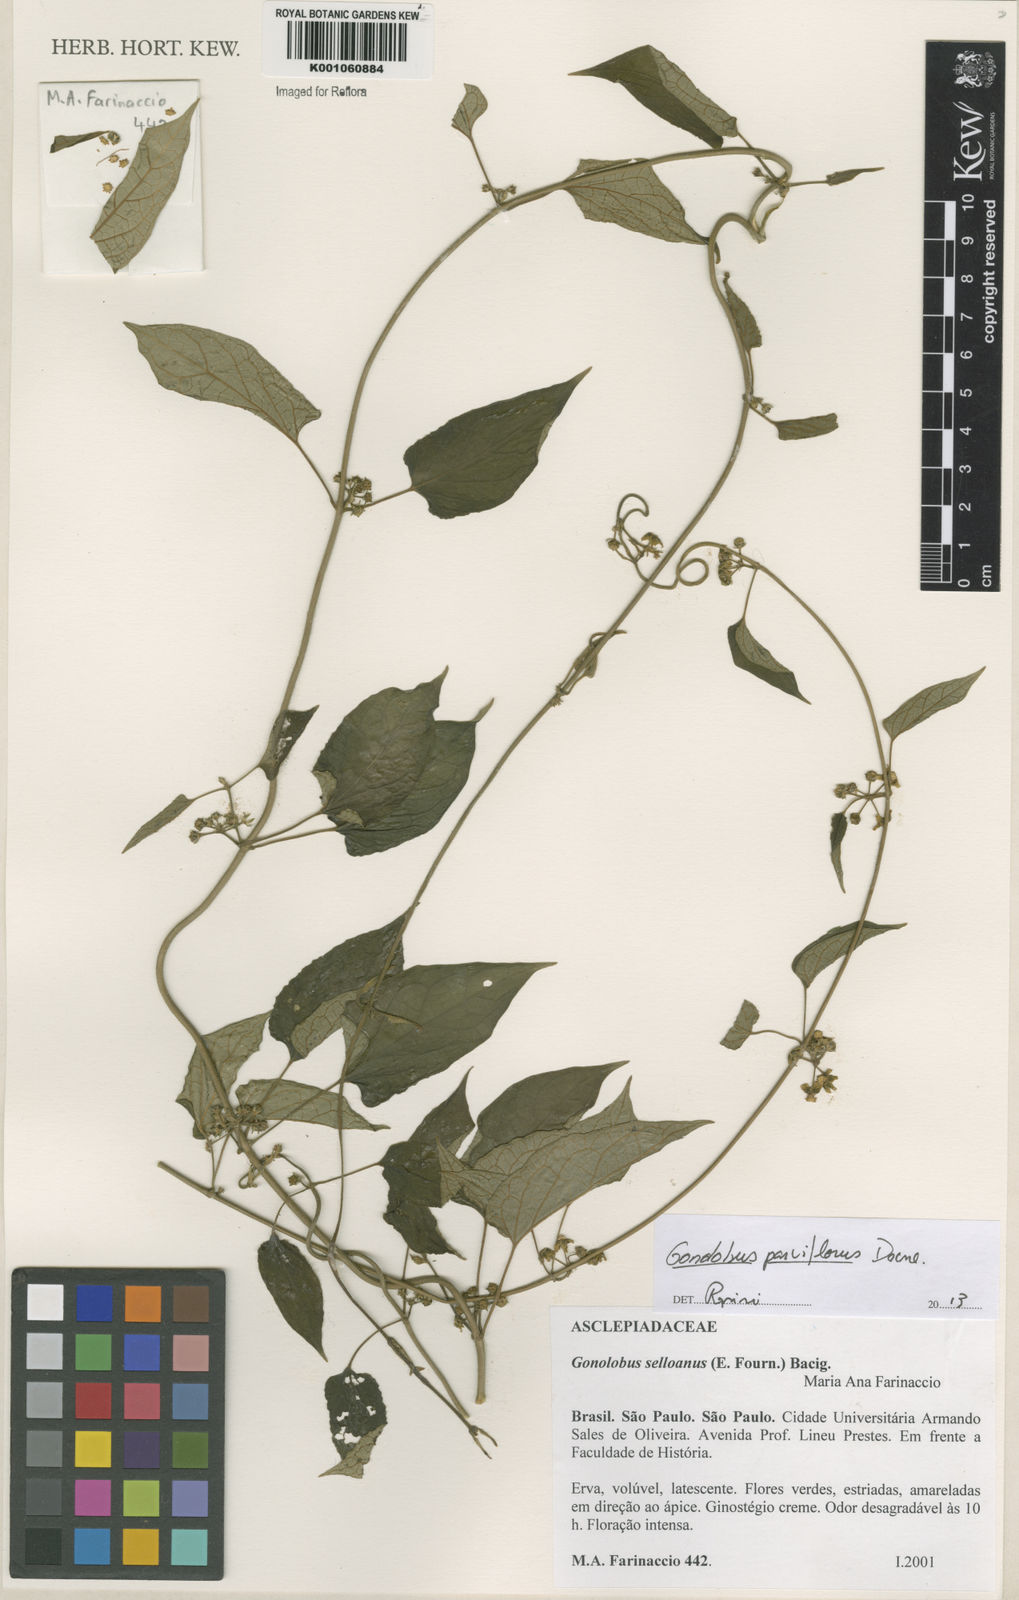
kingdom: Plantae
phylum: Tracheophyta
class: Magnoliopsida
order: Gentianales
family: Apocynaceae
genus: Gonolobus
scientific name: Gonolobus parviflorus
